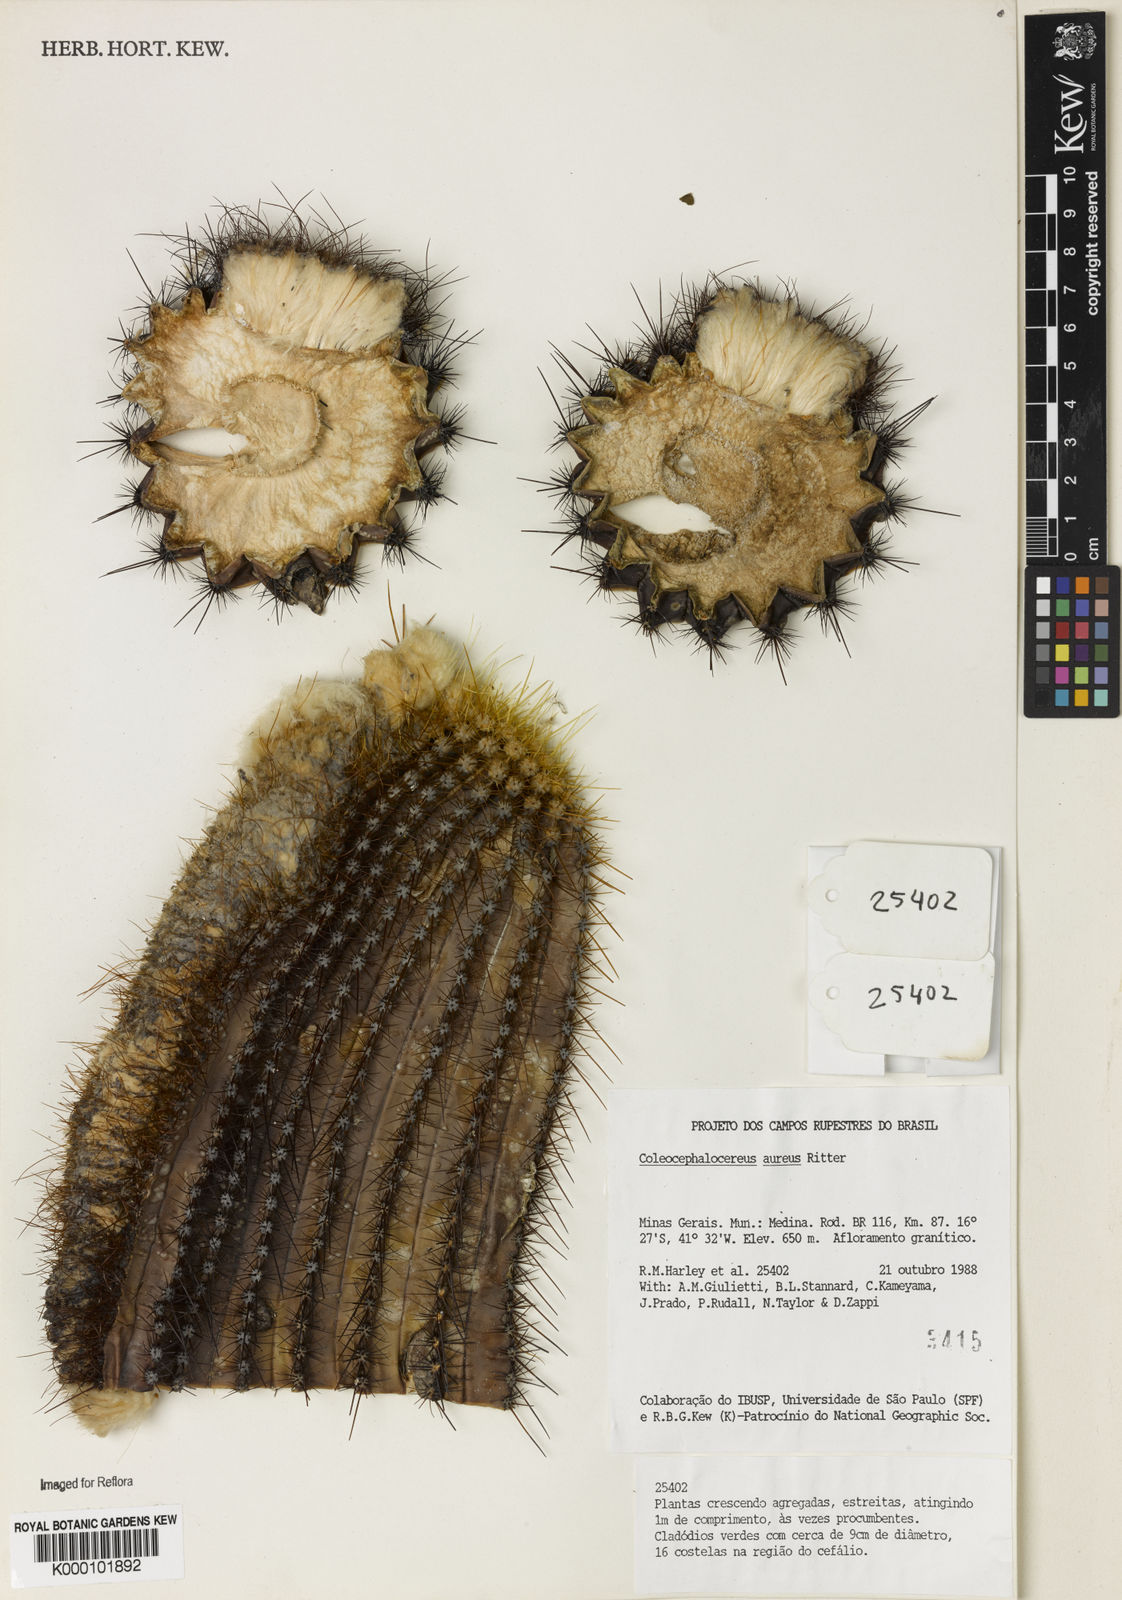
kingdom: Plantae
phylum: Tracheophyta
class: Magnoliopsida
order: Caryophyllales
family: Cactaceae
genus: Coleocephalocereus
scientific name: Coleocephalocereus aureus
